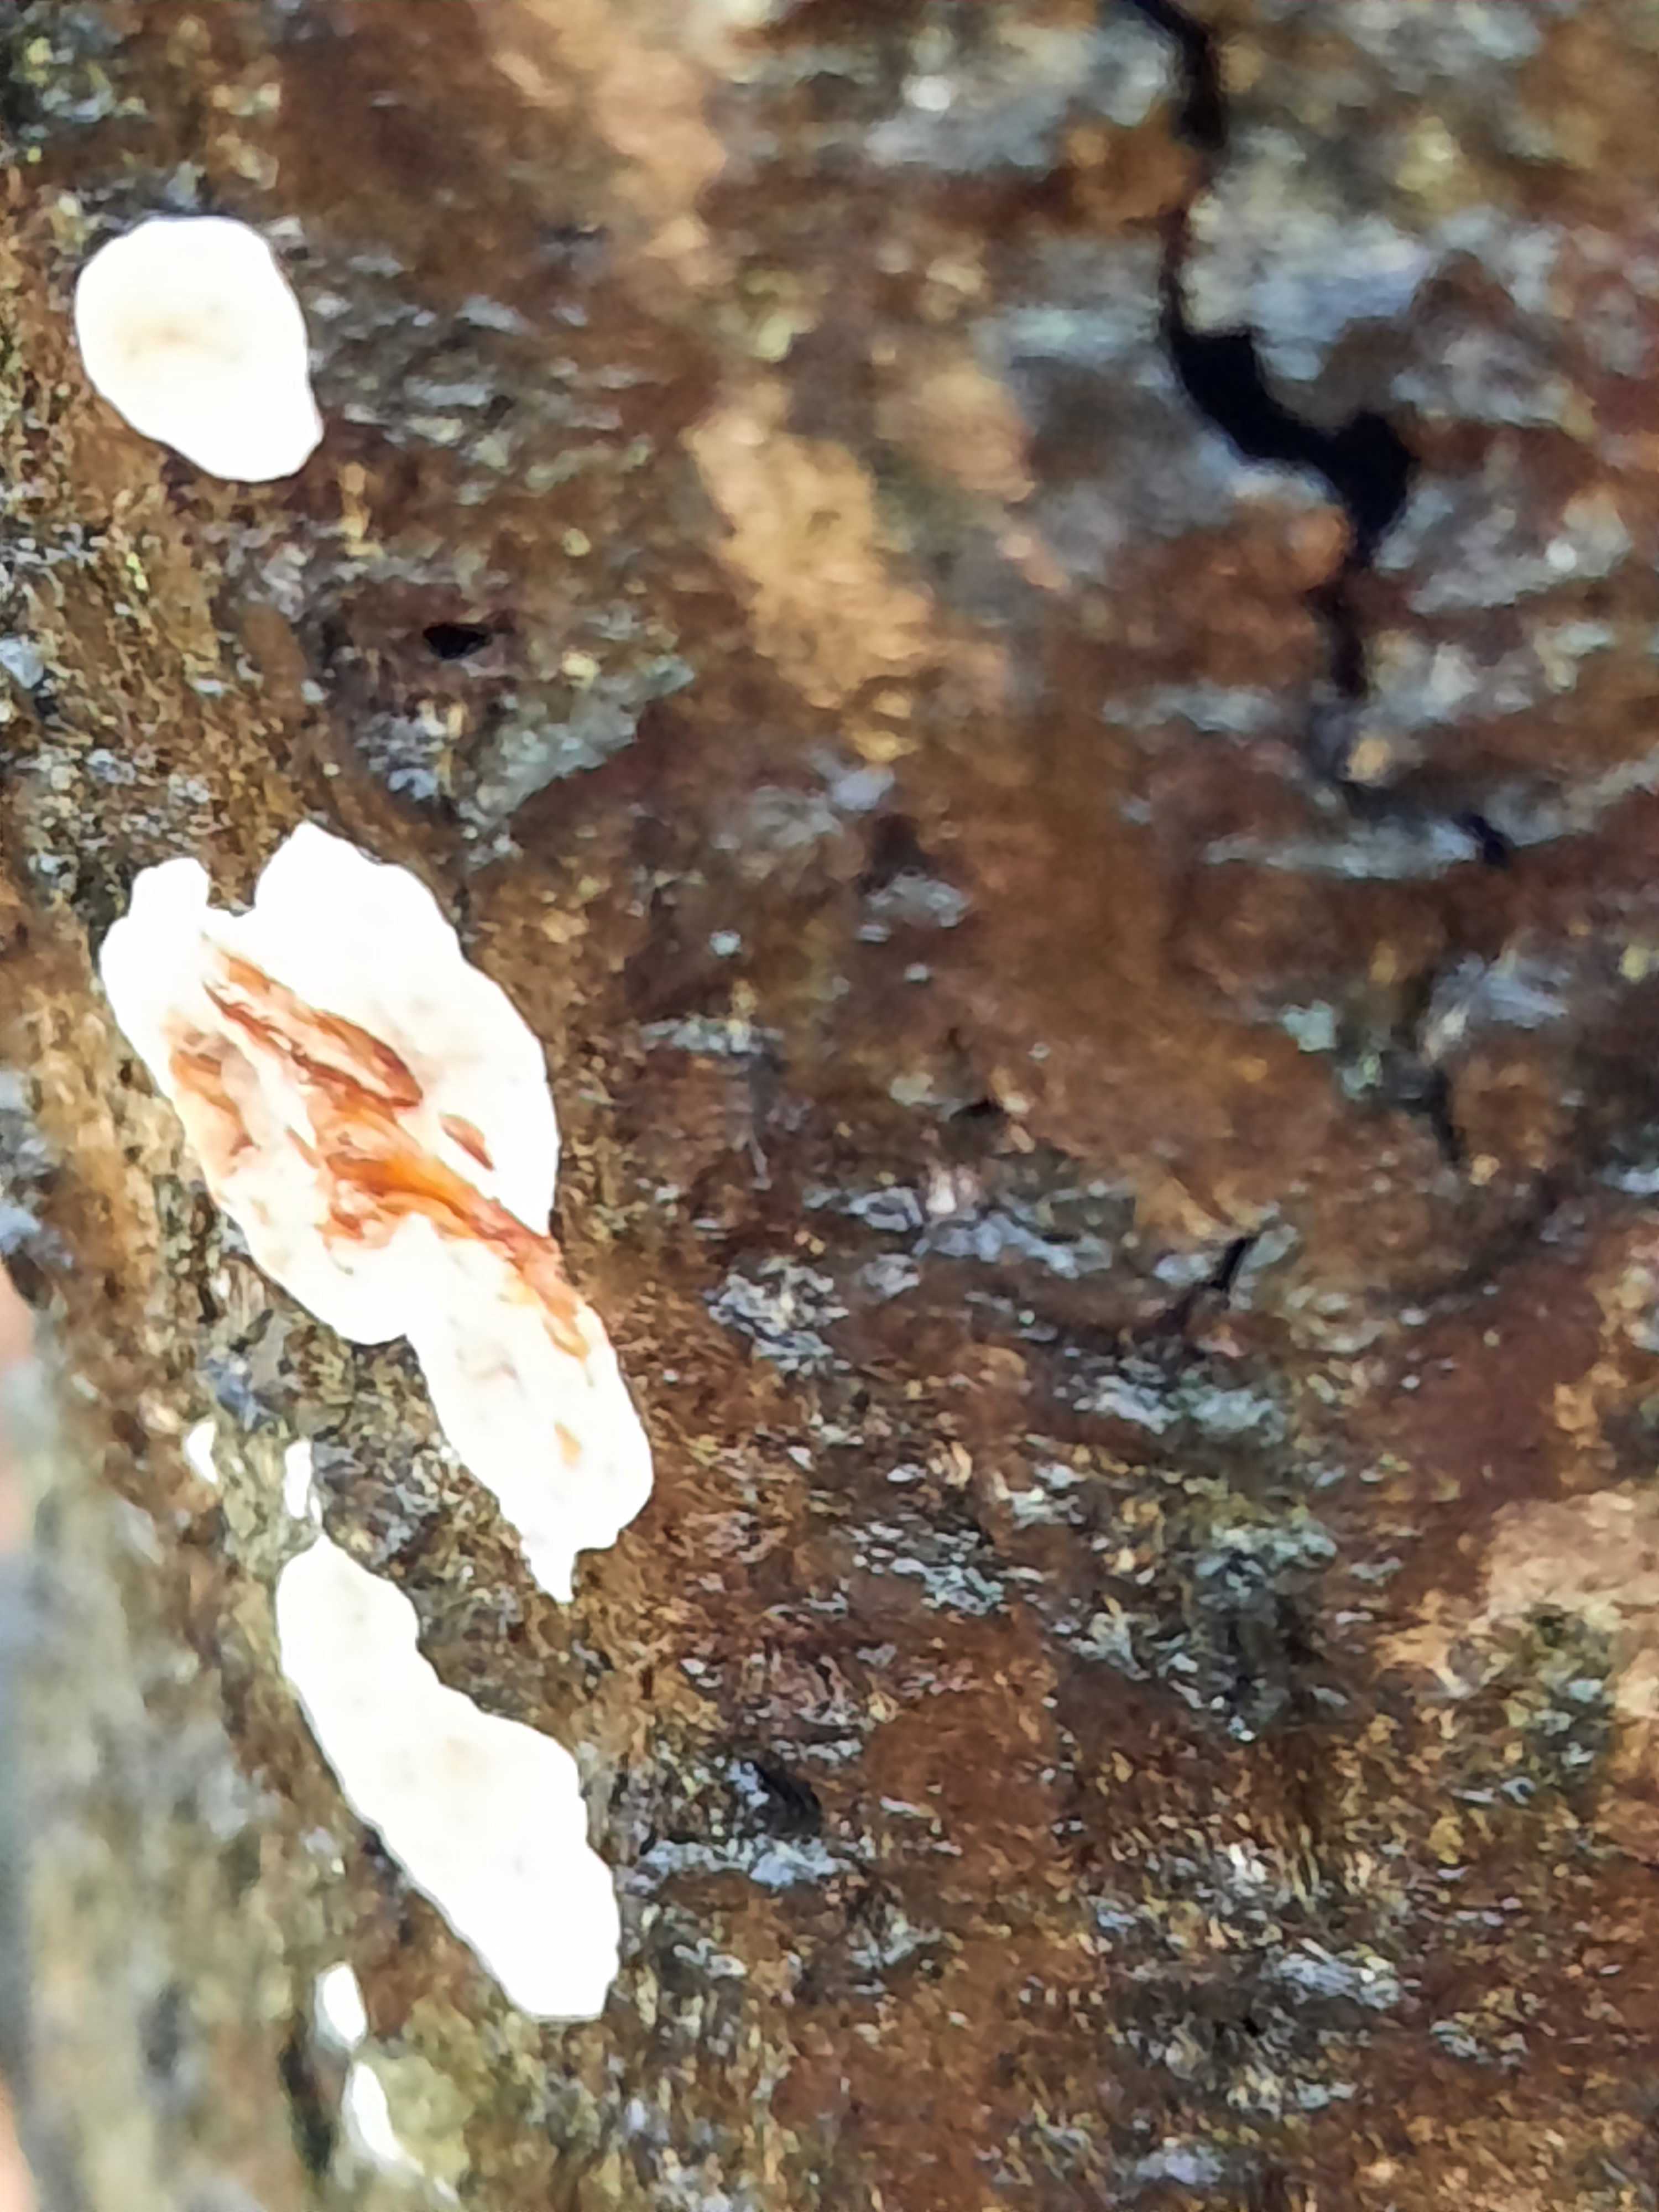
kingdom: Fungi
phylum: Basidiomycota
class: Agaricomycetes
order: Russulales
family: Stereaceae
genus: Stereum
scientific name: Stereum rugosum
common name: rynket lædersvamp
